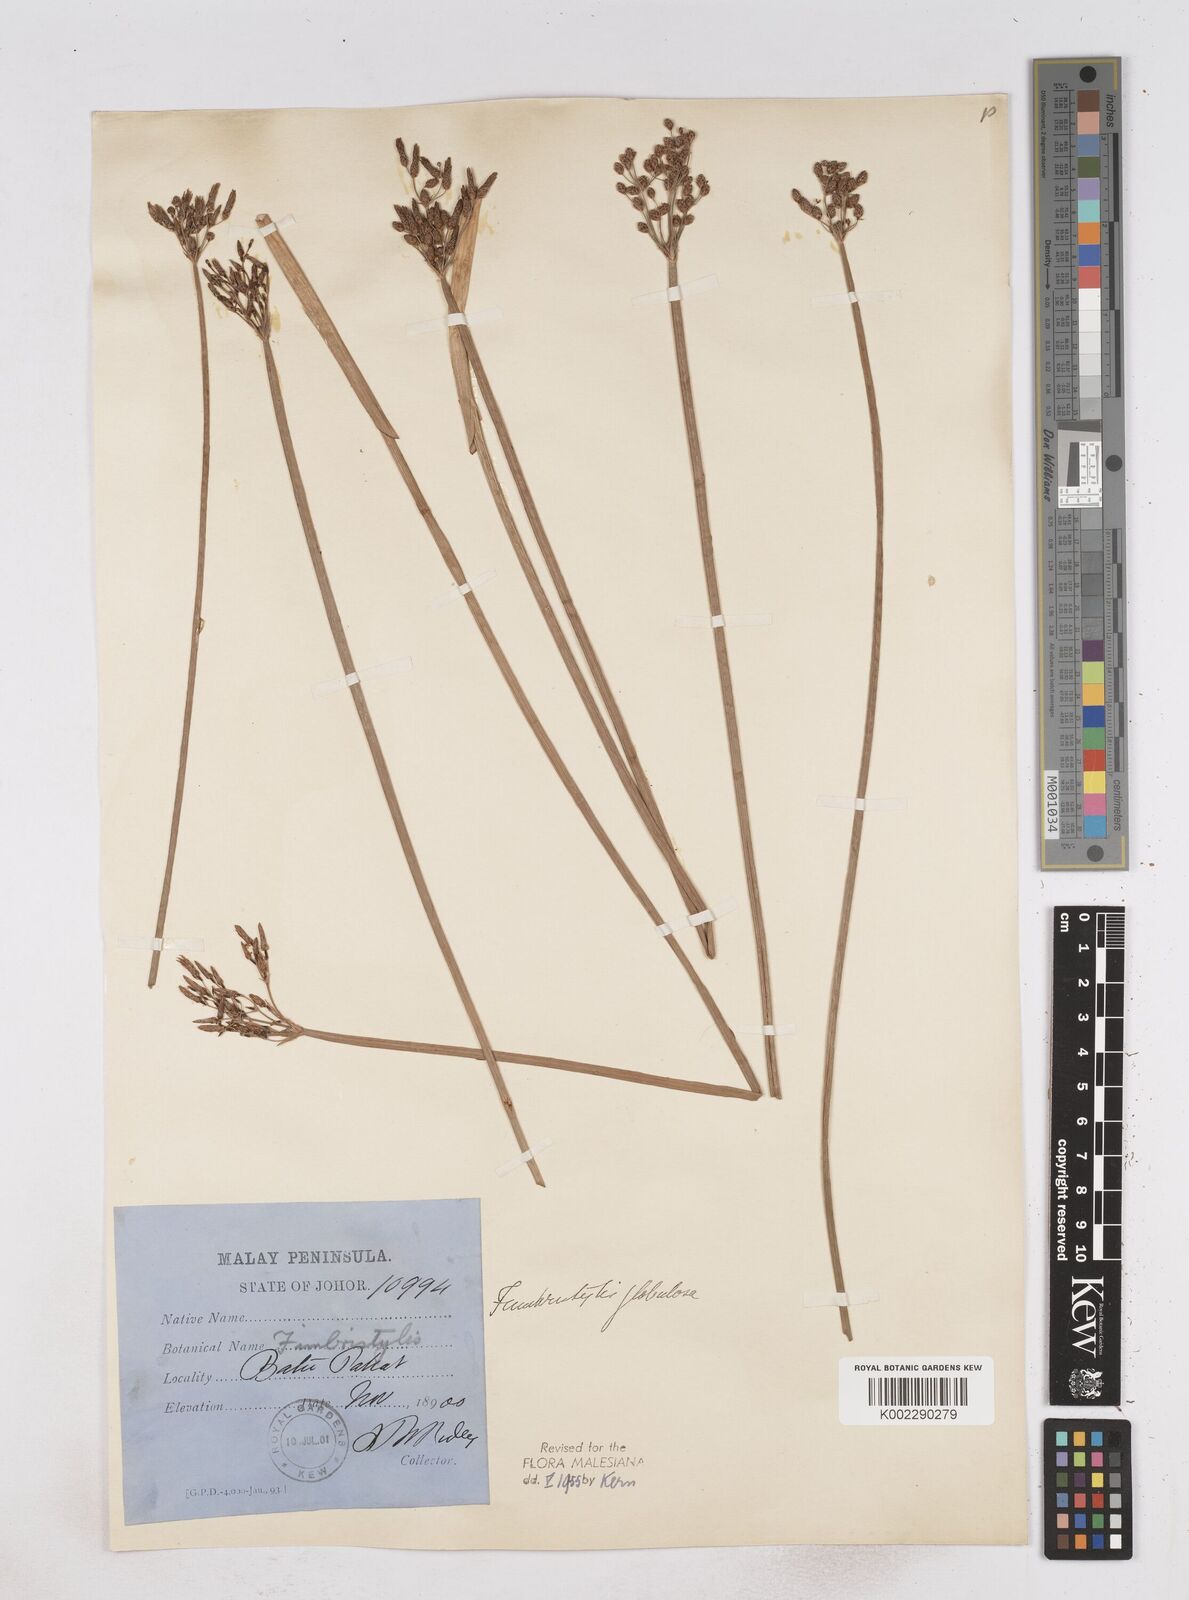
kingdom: Plantae
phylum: Tracheophyta
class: Liliopsida
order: Poales
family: Cyperaceae
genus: Fimbristylis
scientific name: Fimbristylis umbellaris
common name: Globular fimbristylis
